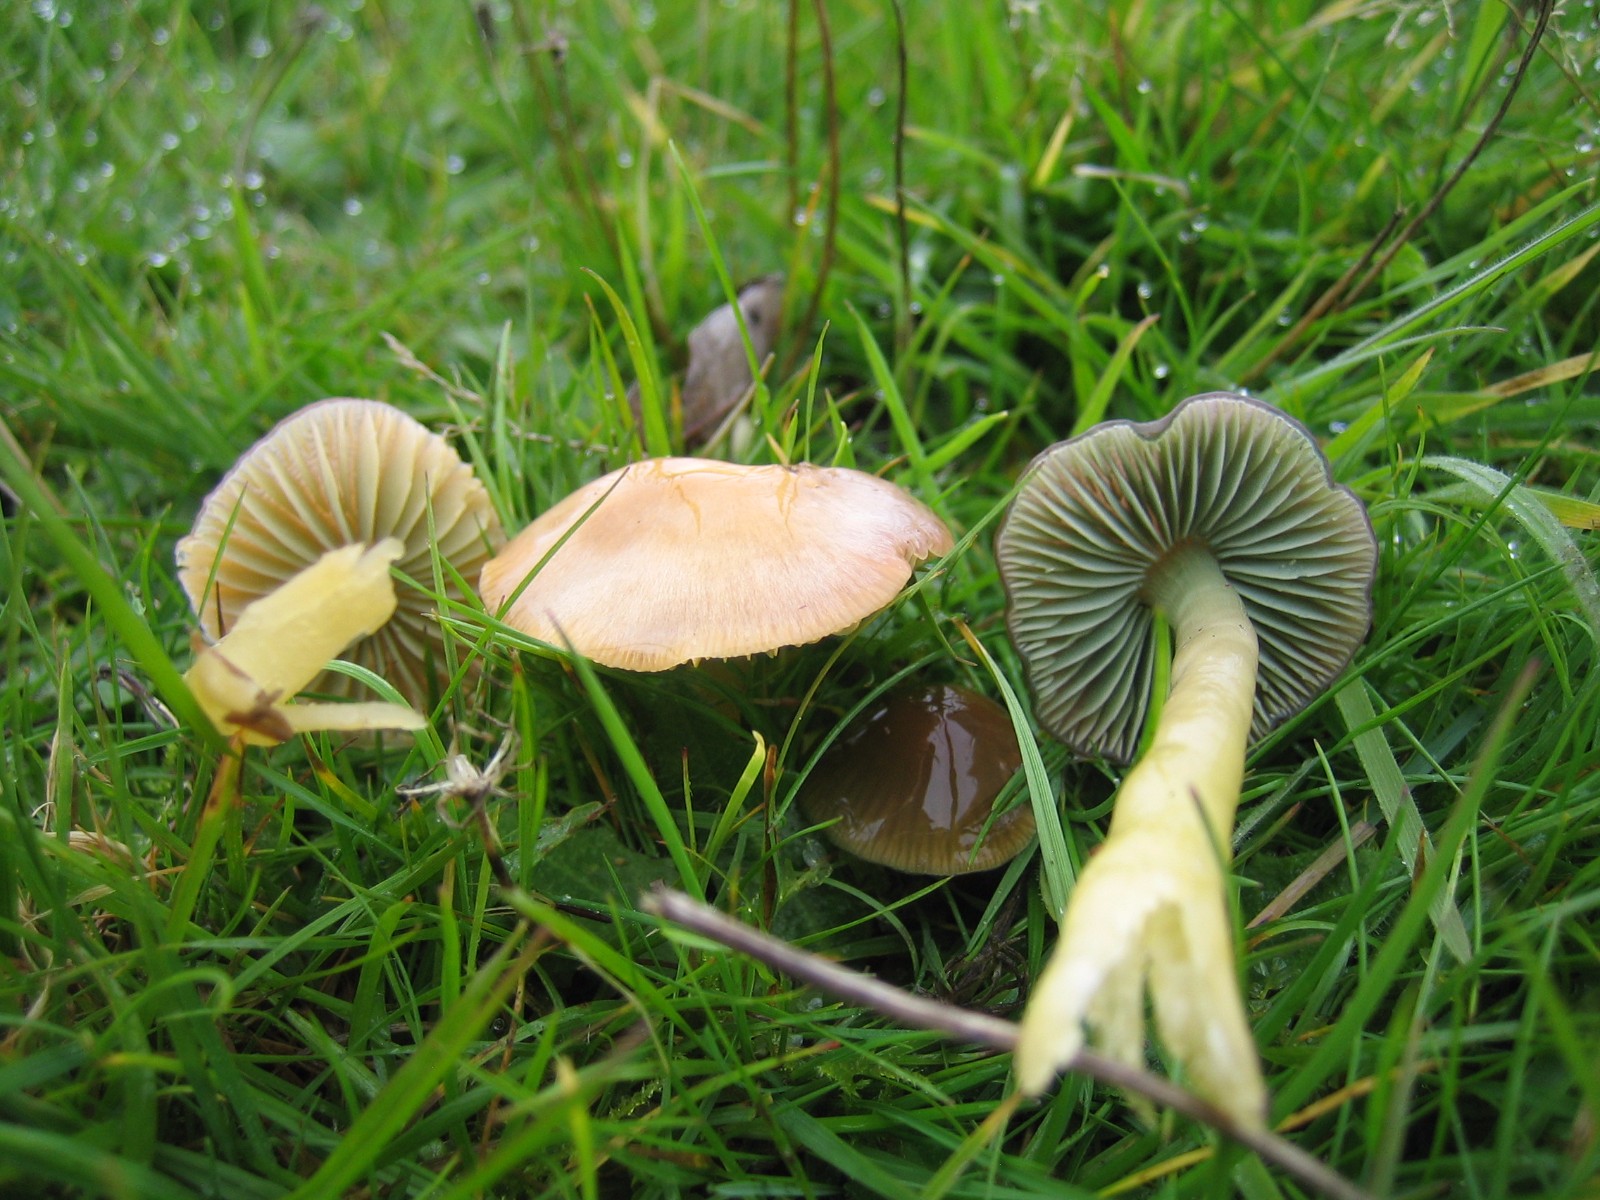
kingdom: Fungi
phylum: Basidiomycota
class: Agaricomycetes
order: Agaricales
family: Hygrophoraceae
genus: Gliophorus
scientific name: Gliophorus psittacinus
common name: papegøje-vokshat
